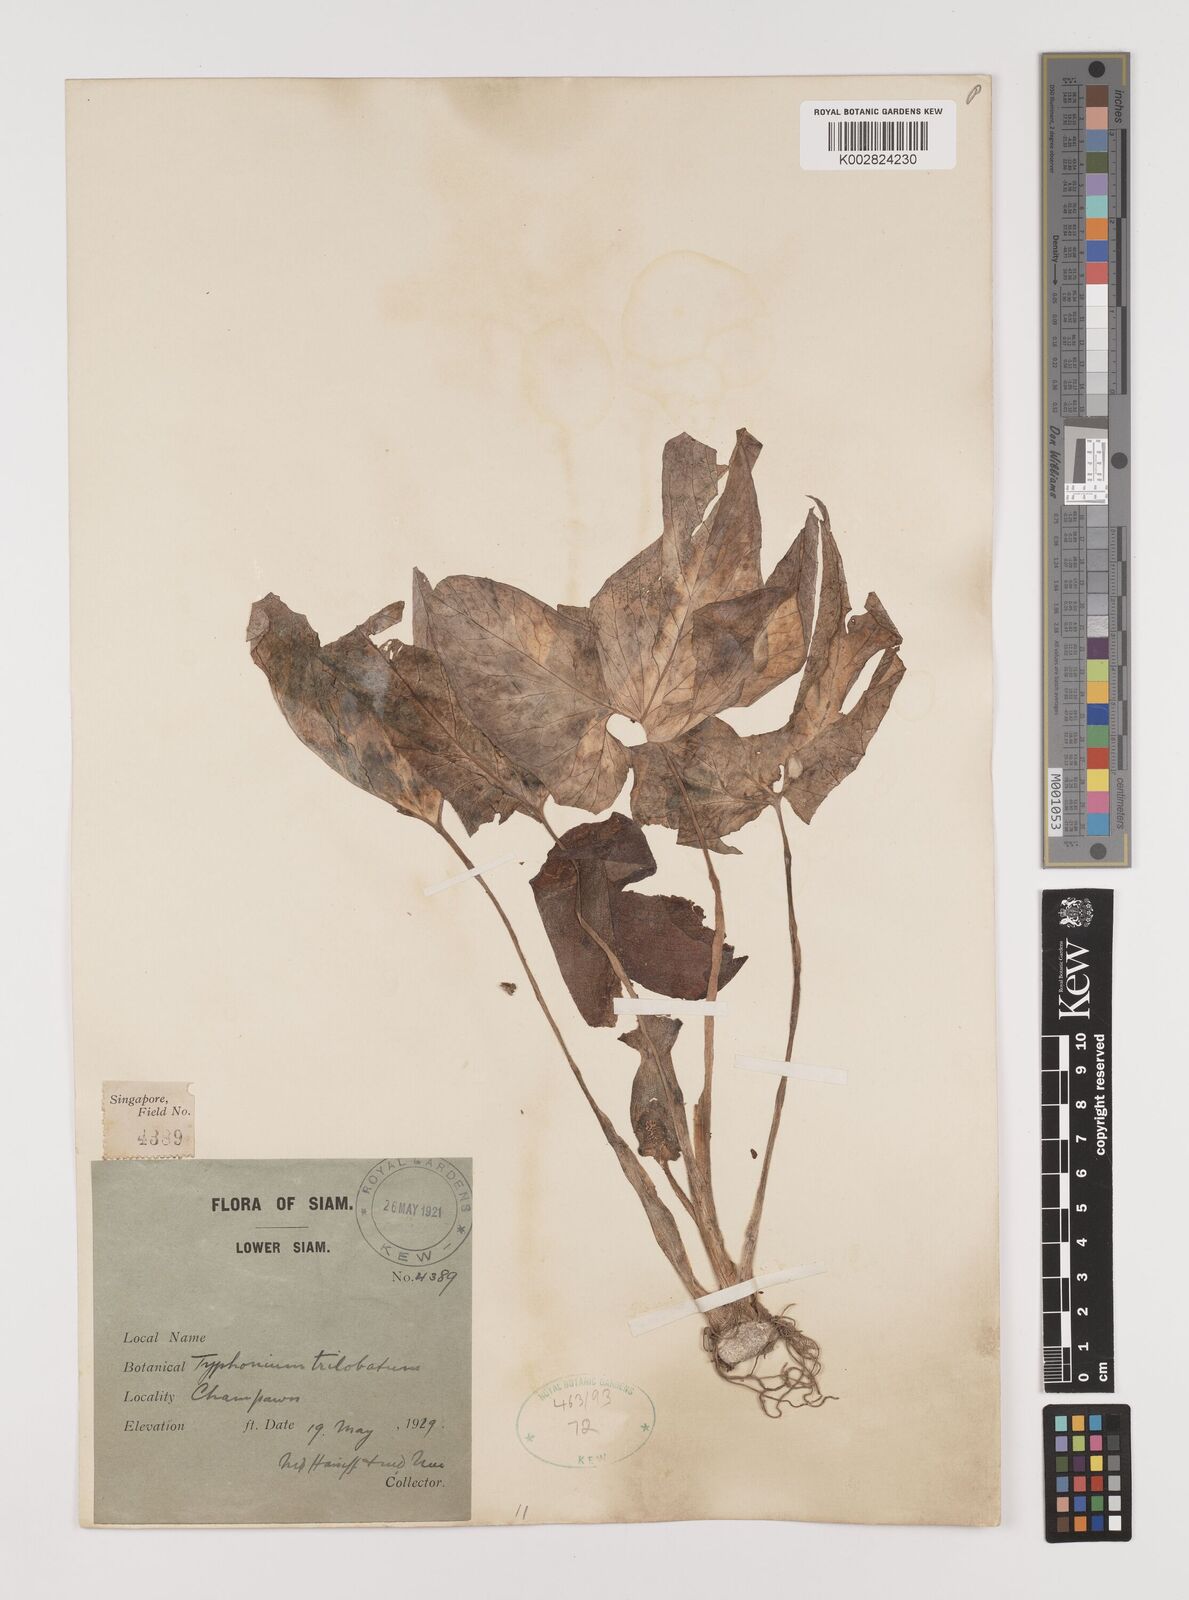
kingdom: Plantae
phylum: Tracheophyta
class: Liliopsida
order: Alismatales
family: Araceae
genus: Typhonium
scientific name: Typhonium trilobatum
